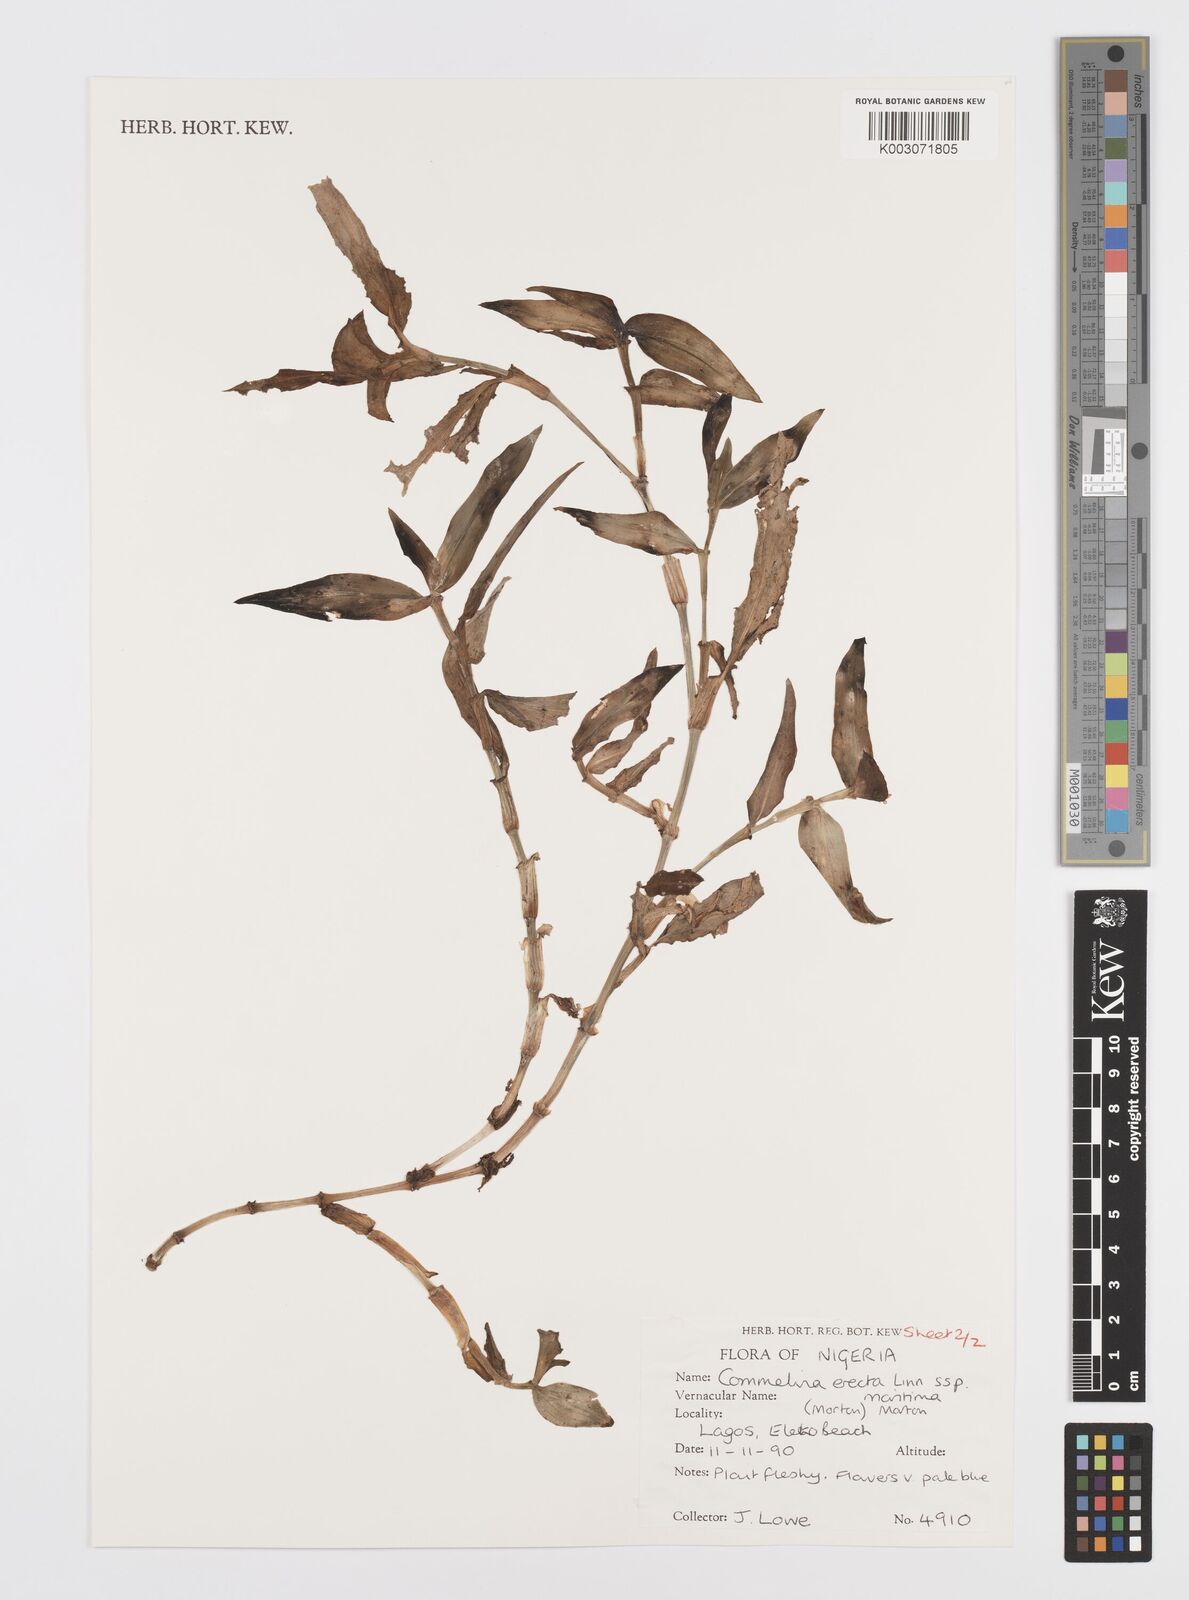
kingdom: Plantae
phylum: Tracheophyta
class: Liliopsida
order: Commelinales
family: Commelinaceae
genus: Commelina
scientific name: Commelina erecta
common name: Blousel blommetjie
